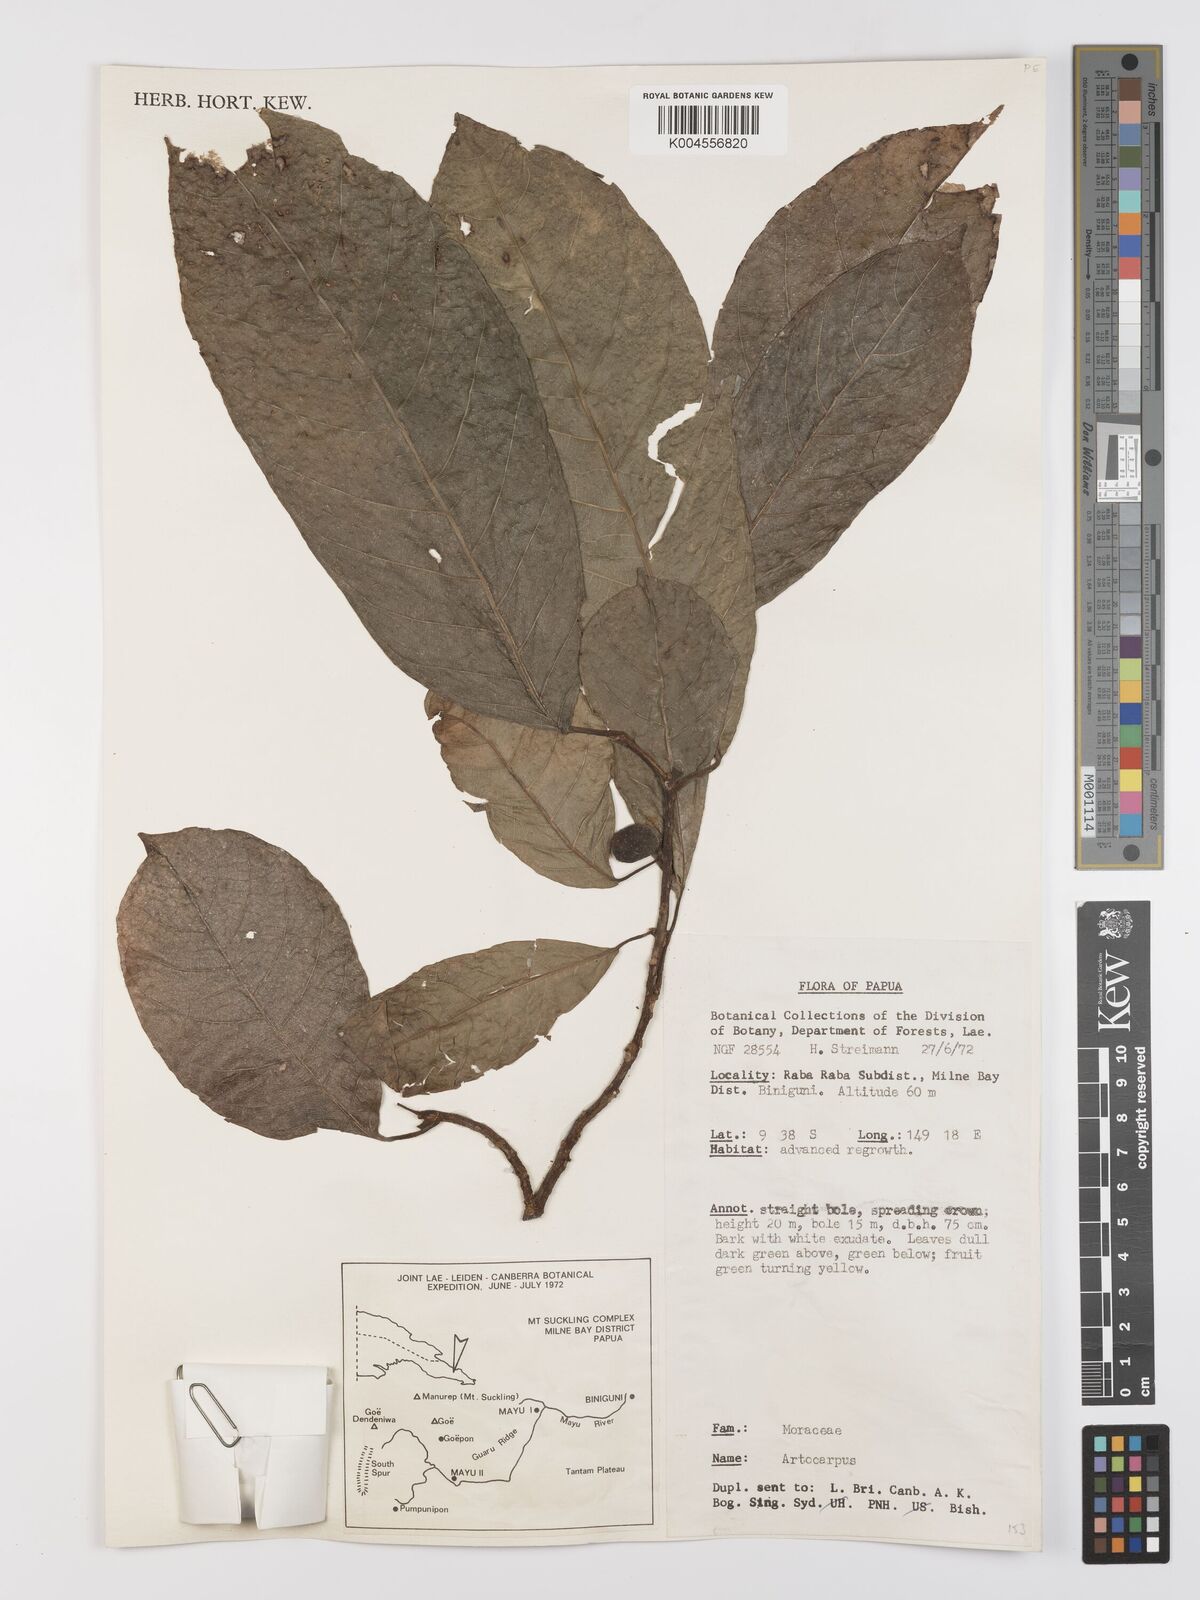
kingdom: Plantae
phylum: Tracheophyta
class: Magnoliopsida
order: Rosales
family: Moraceae
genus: Artocarpus
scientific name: Artocarpus
